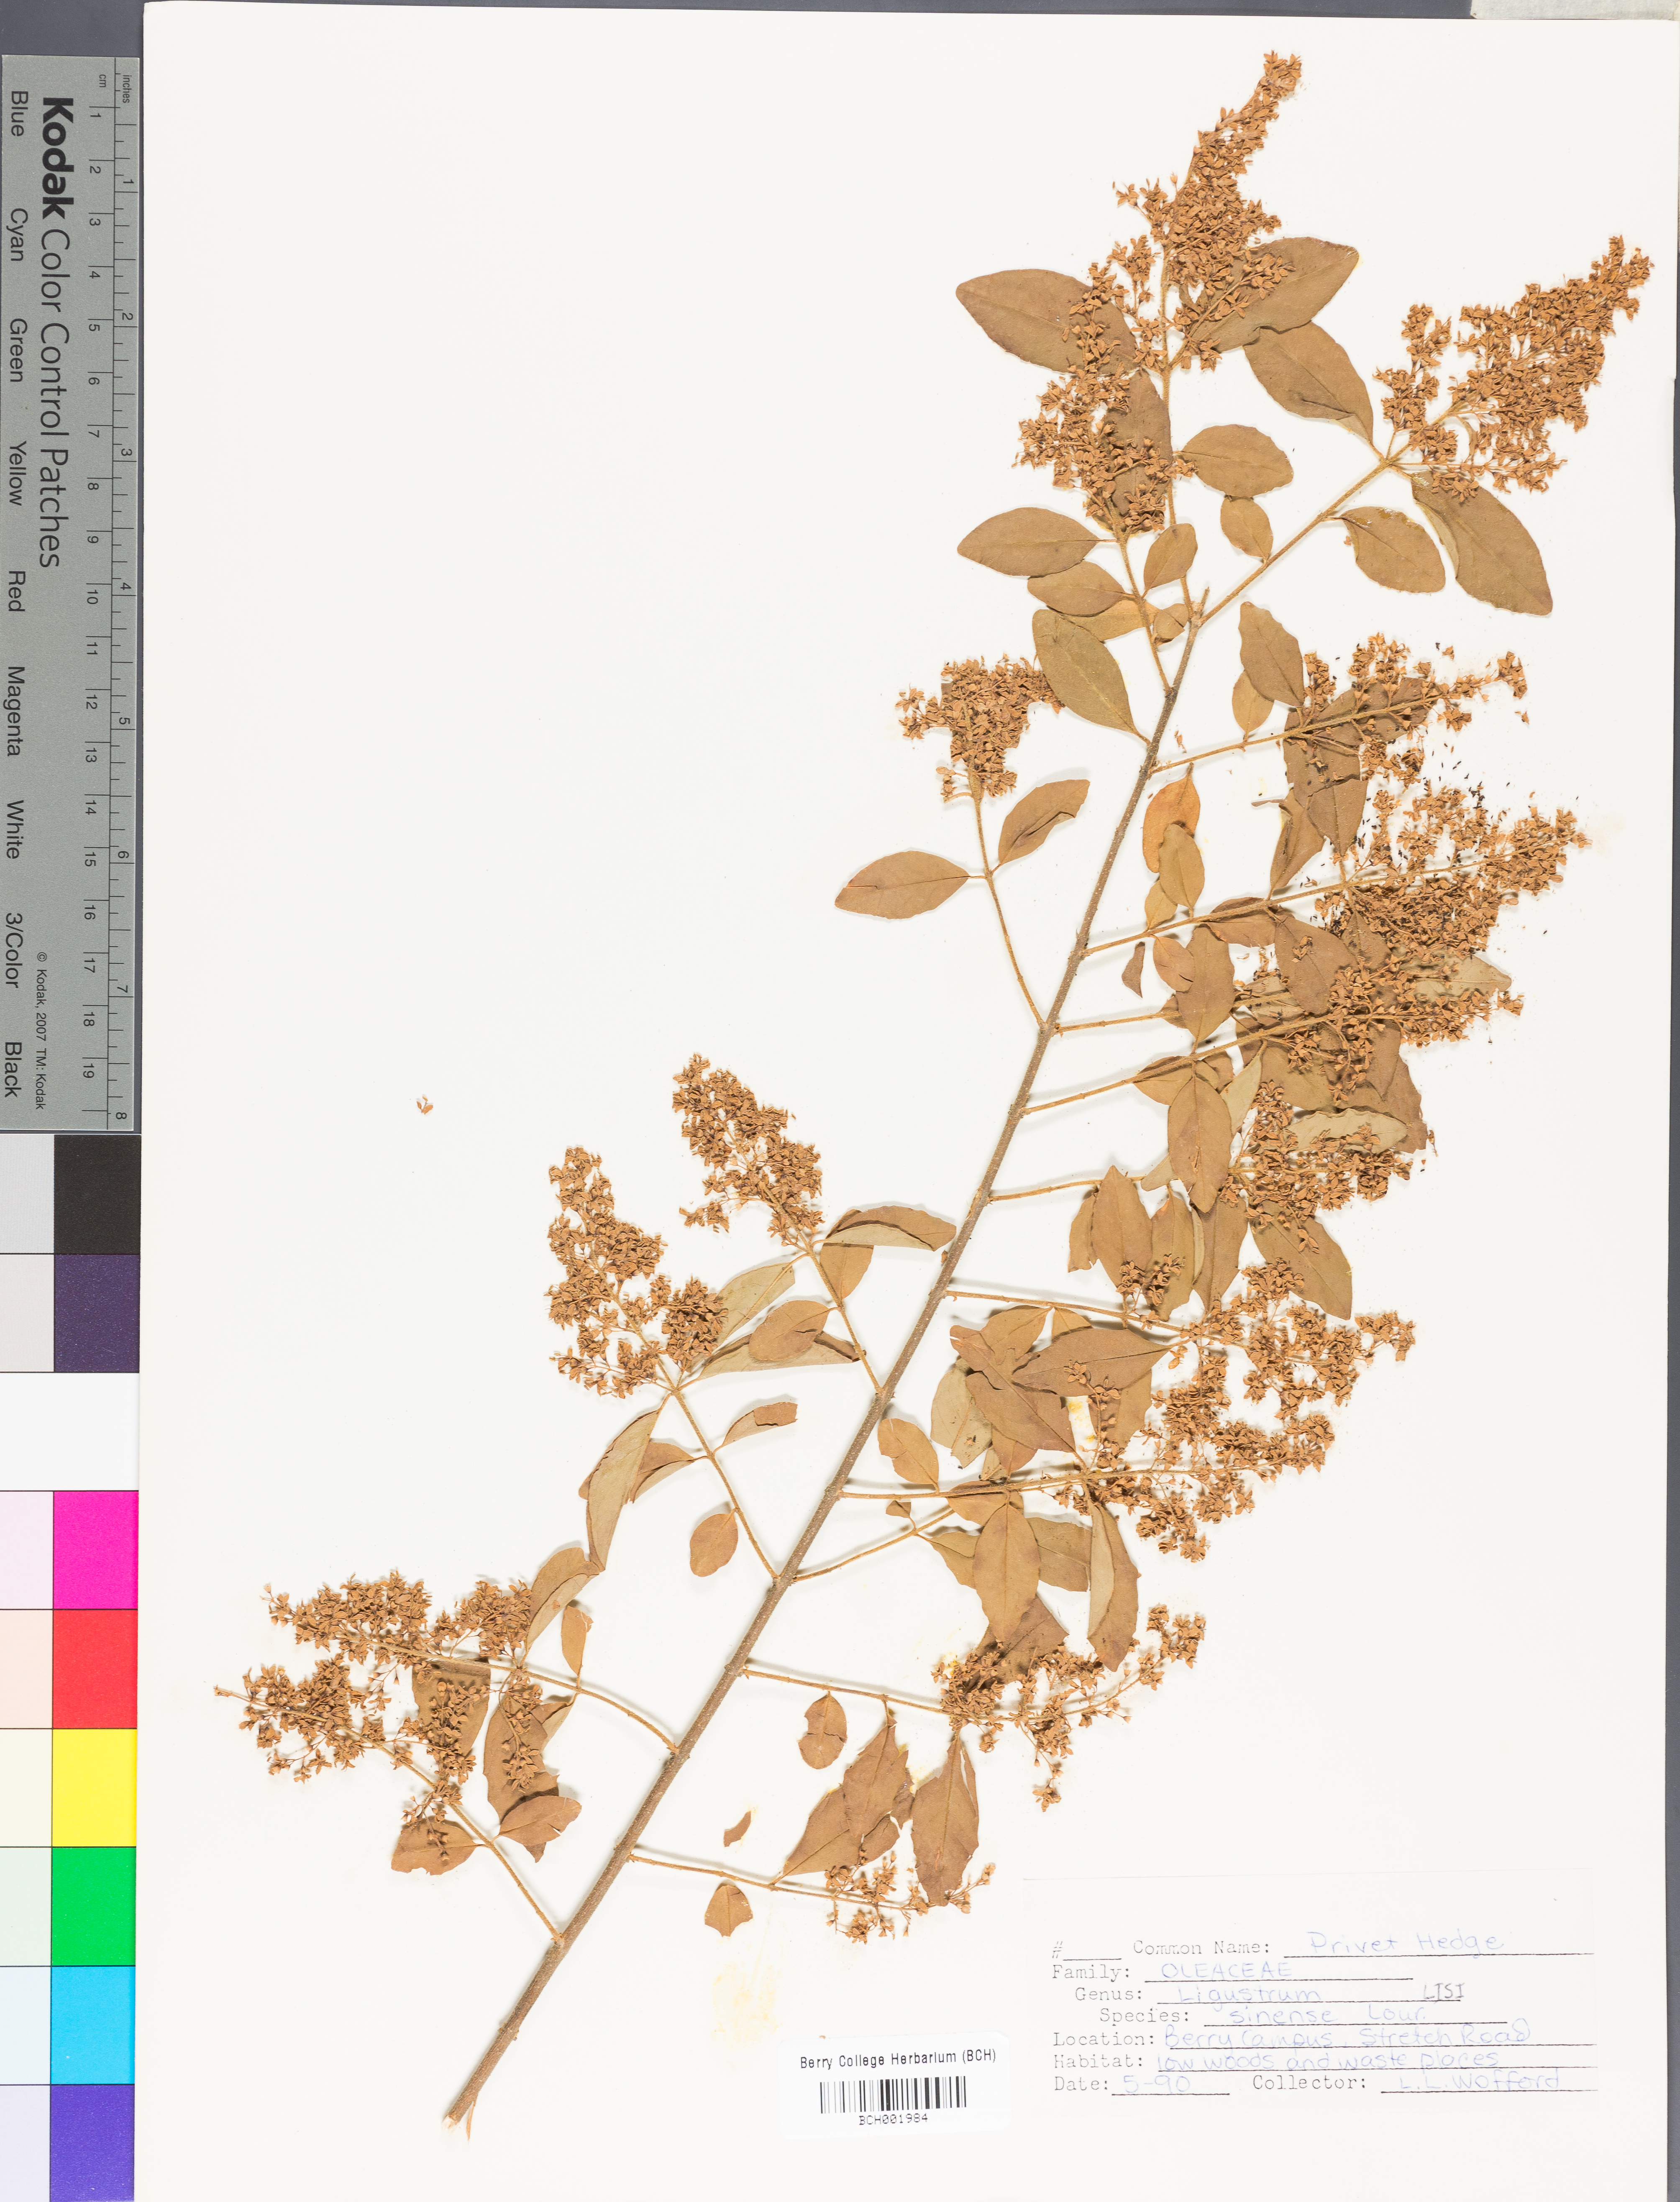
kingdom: Plantae
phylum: Tracheophyta
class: Magnoliopsida
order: Lamiales
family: Oleaceae
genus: Ligustrum
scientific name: Ligustrum sinense
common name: Chinese privet
